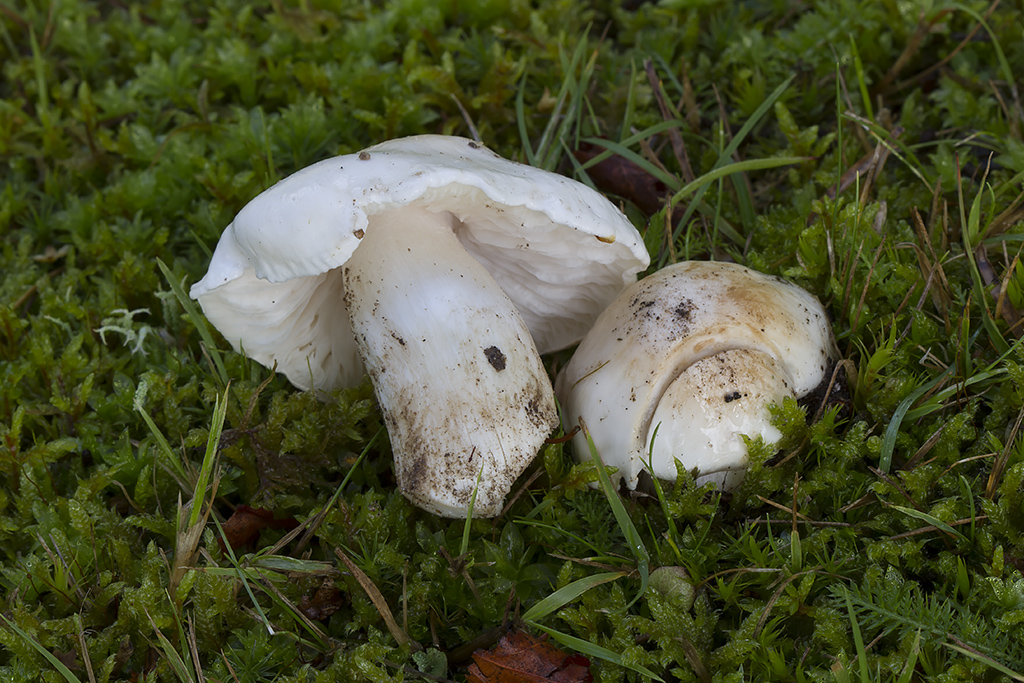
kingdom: Fungi
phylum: Basidiomycota
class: Agaricomycetes
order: Agaricales
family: Tricholomataceae
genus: Tricholoma
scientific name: Tricholoma columbetta
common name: silke-ridderhat
